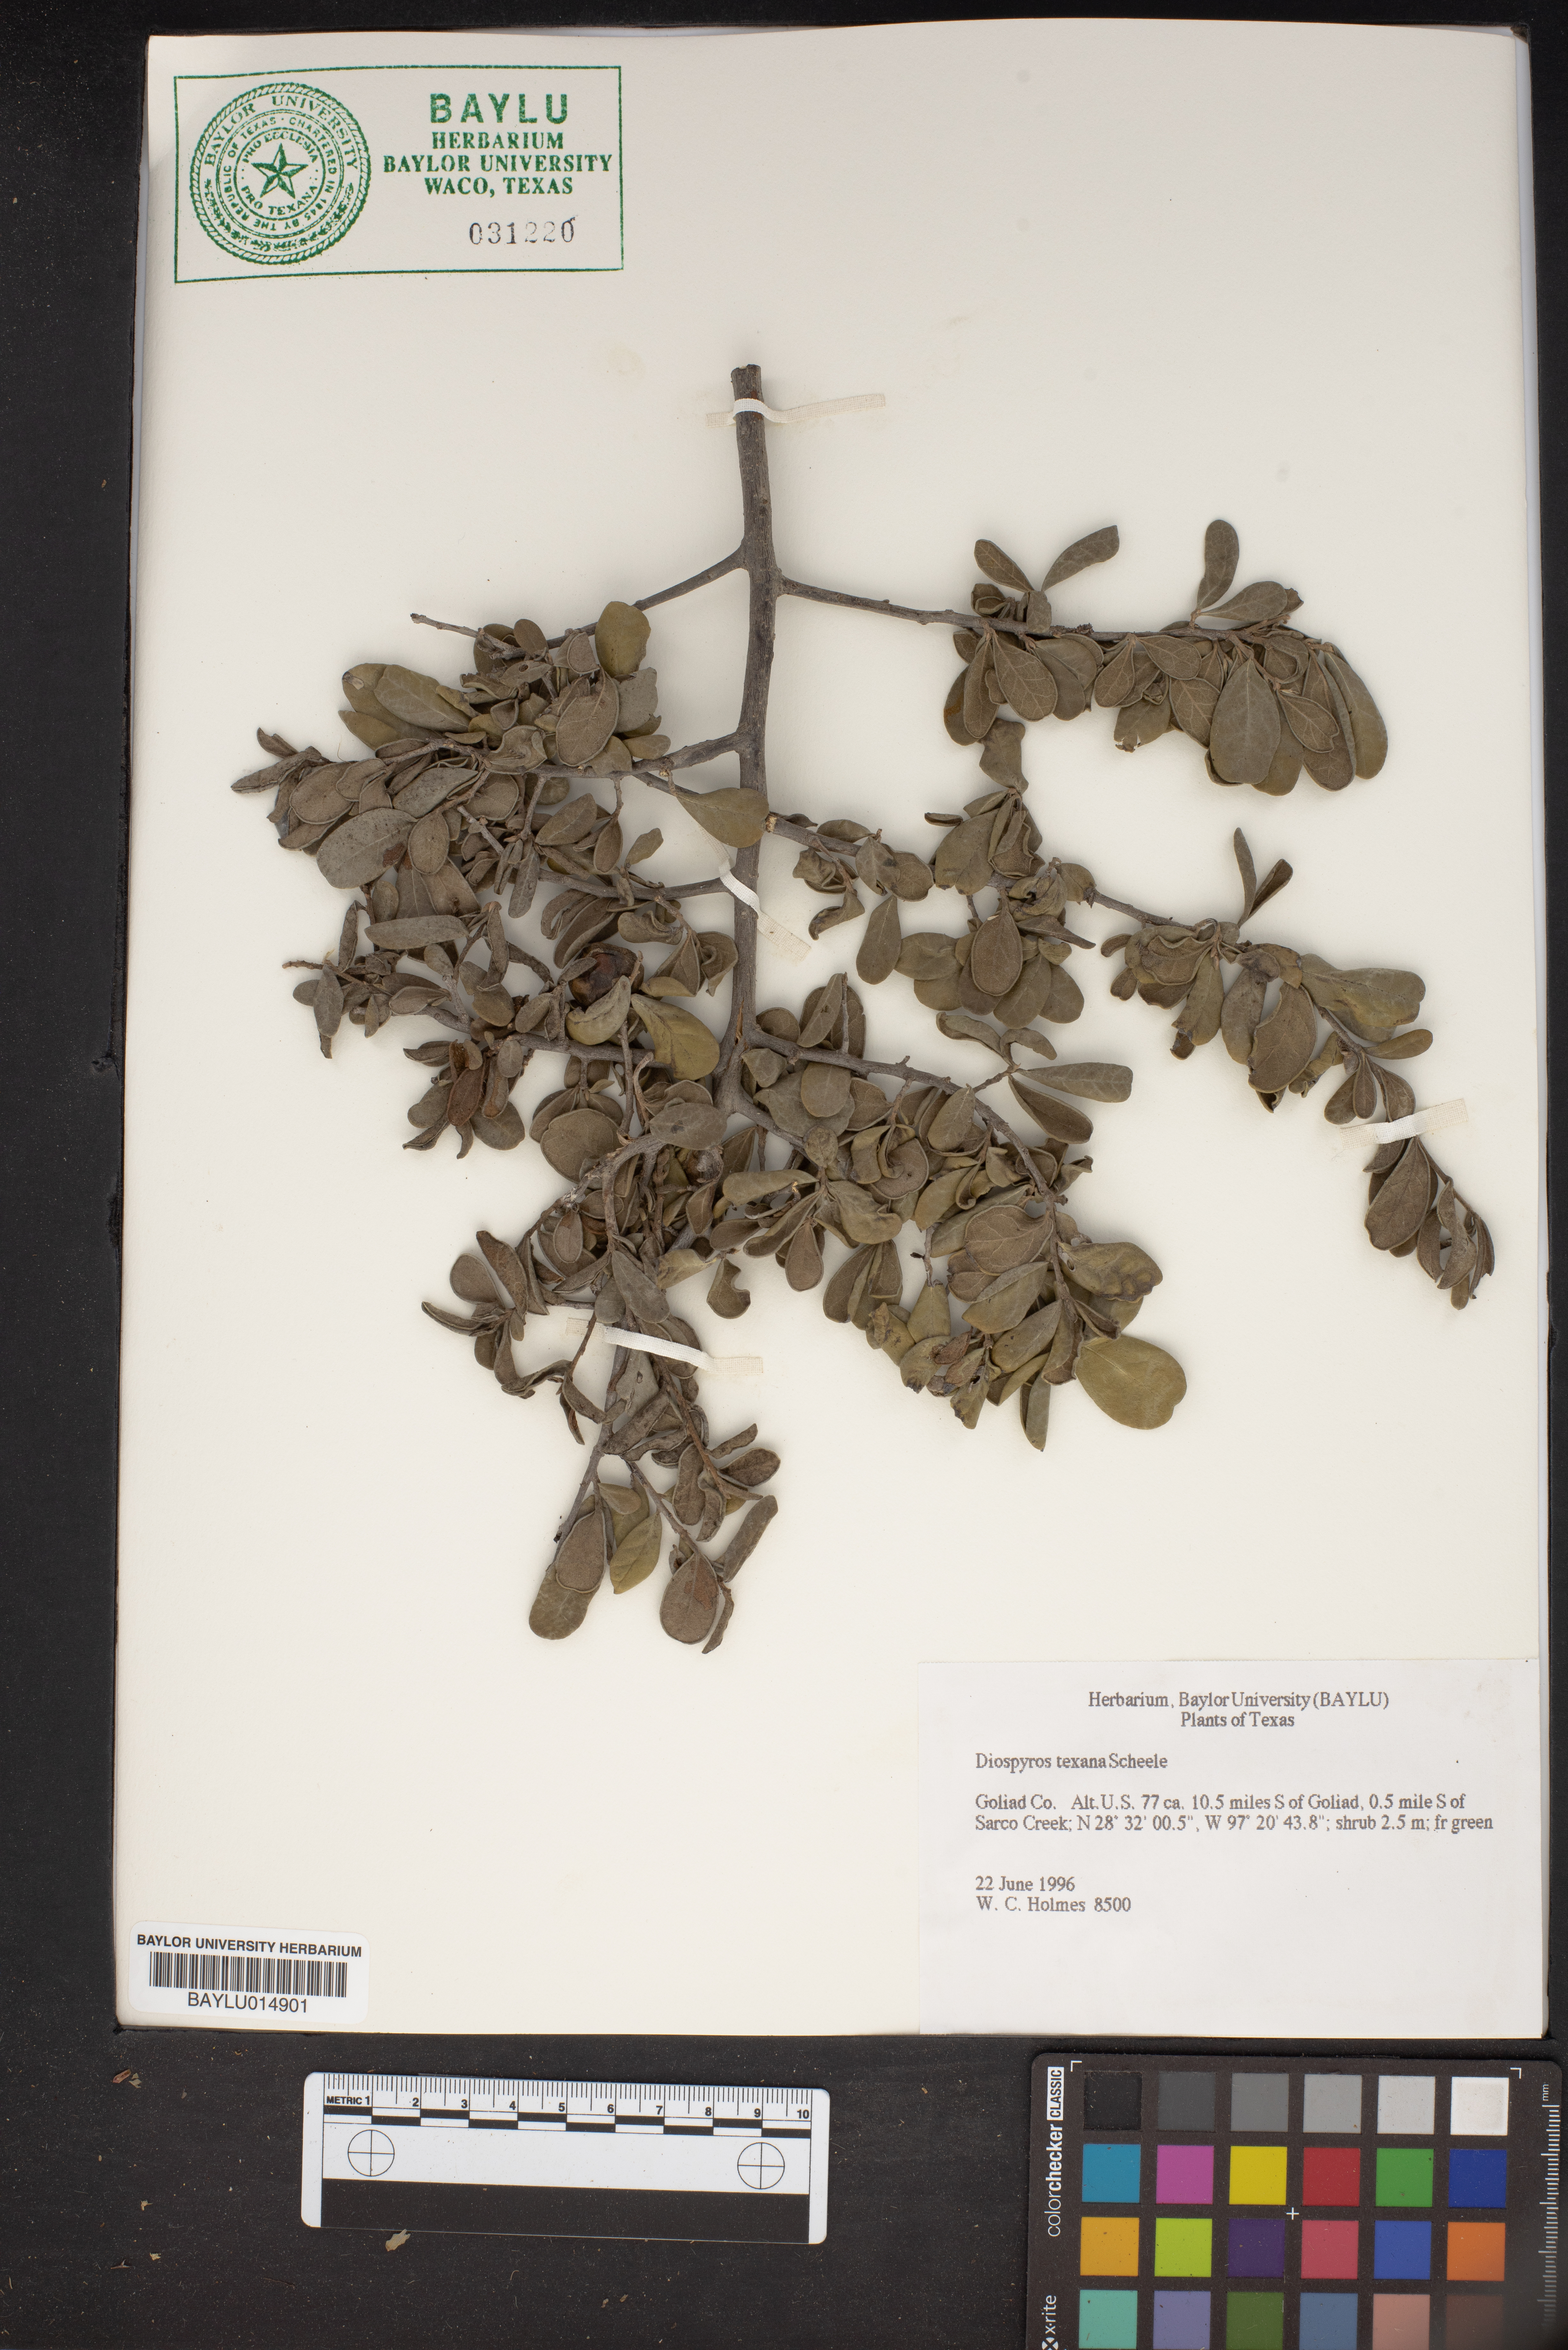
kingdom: Plantae
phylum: Tracheophyta
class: Magnoliopsida
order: Ericales
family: Ebenaceae
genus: Diospyros
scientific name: Diospyros texana
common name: Texas persimmon
